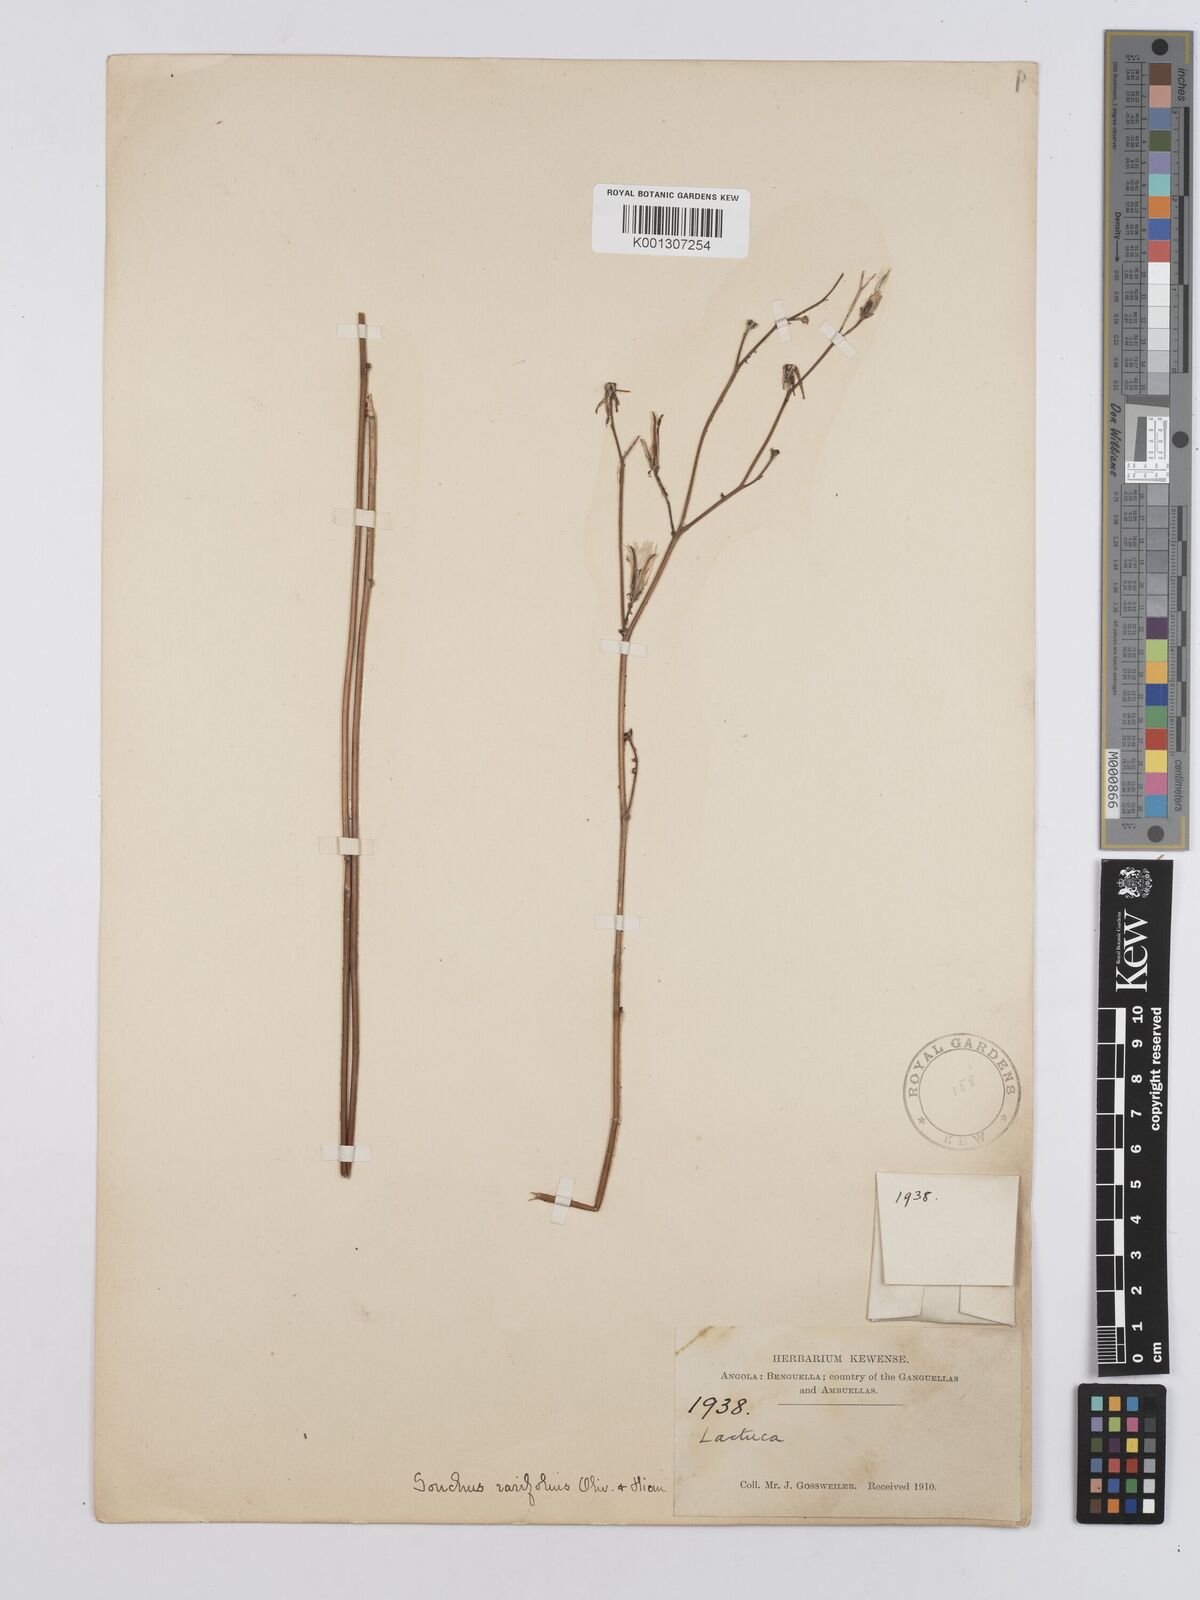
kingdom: Plantae
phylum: Tracheophyta
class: Magnoliopsida
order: Asterales
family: Asteraceae
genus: Launaea
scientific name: Launaea rarifolia
